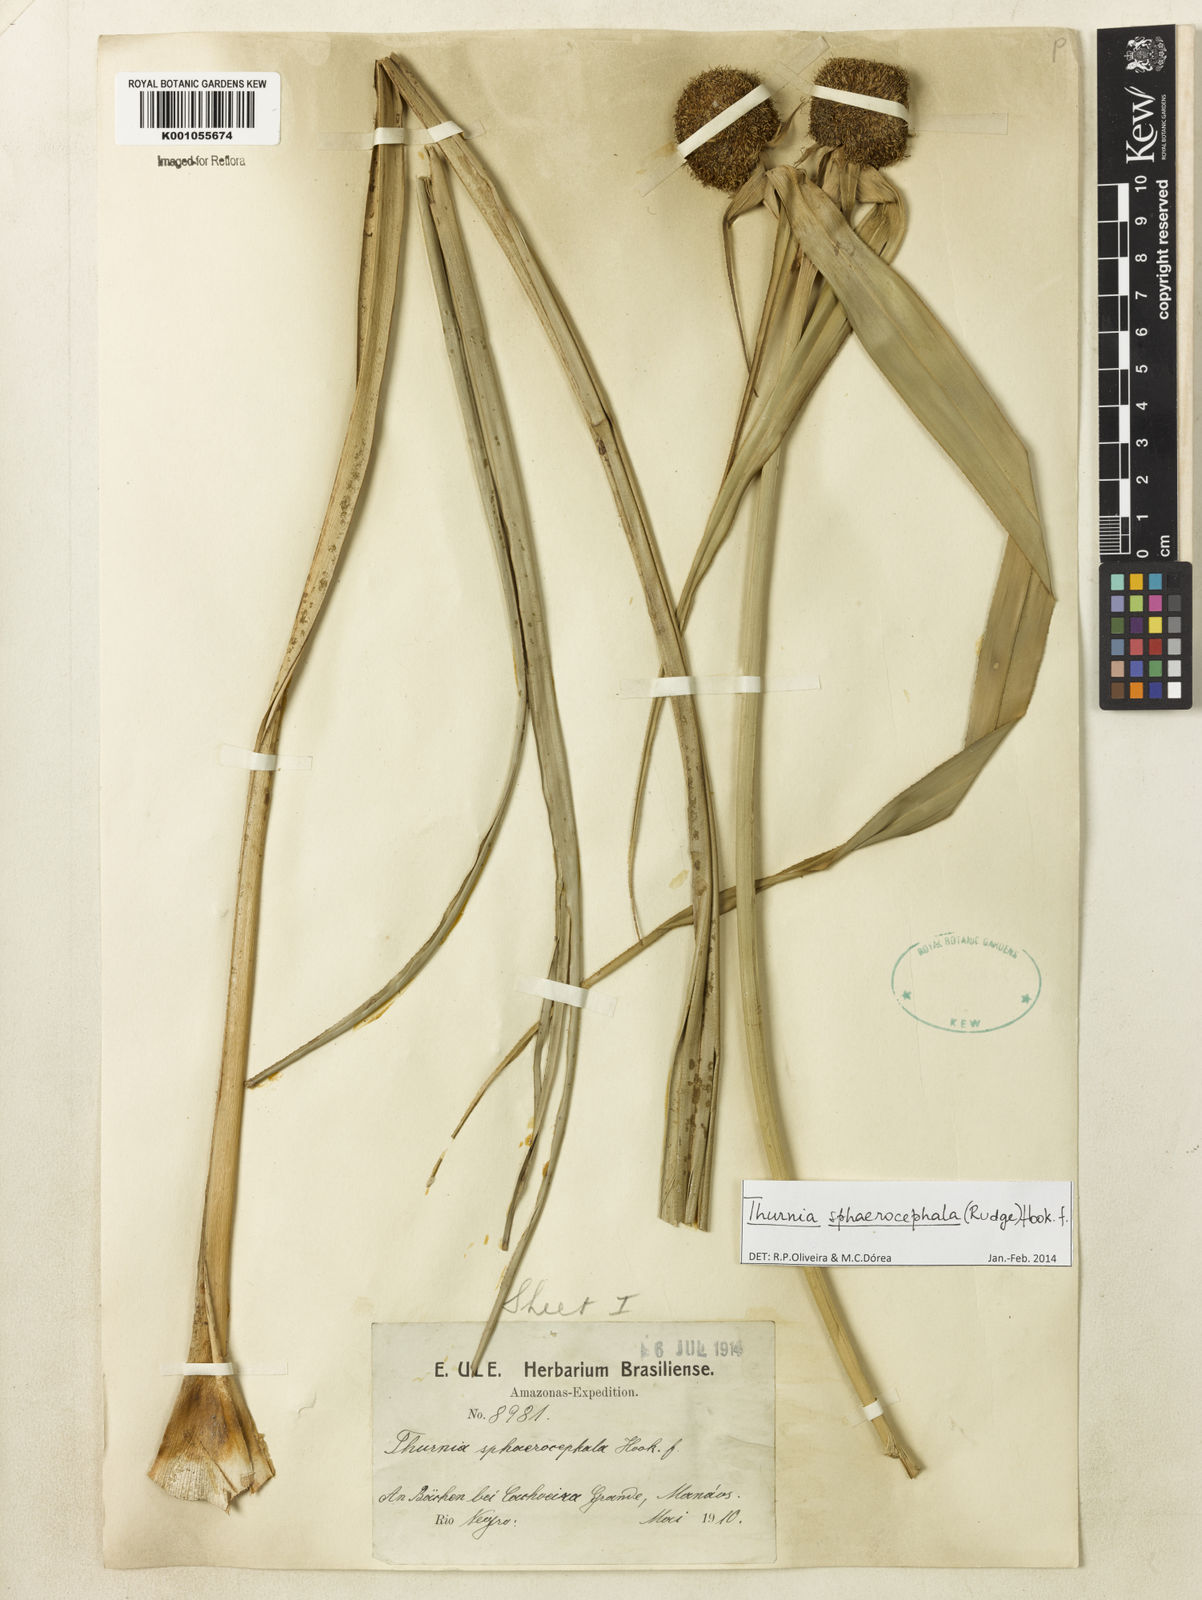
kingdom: Plantae
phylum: Tracheophyta
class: Liliopsida
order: Poales
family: Thurniaceae
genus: Thurnia
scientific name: Thurnia sphaerocephala
